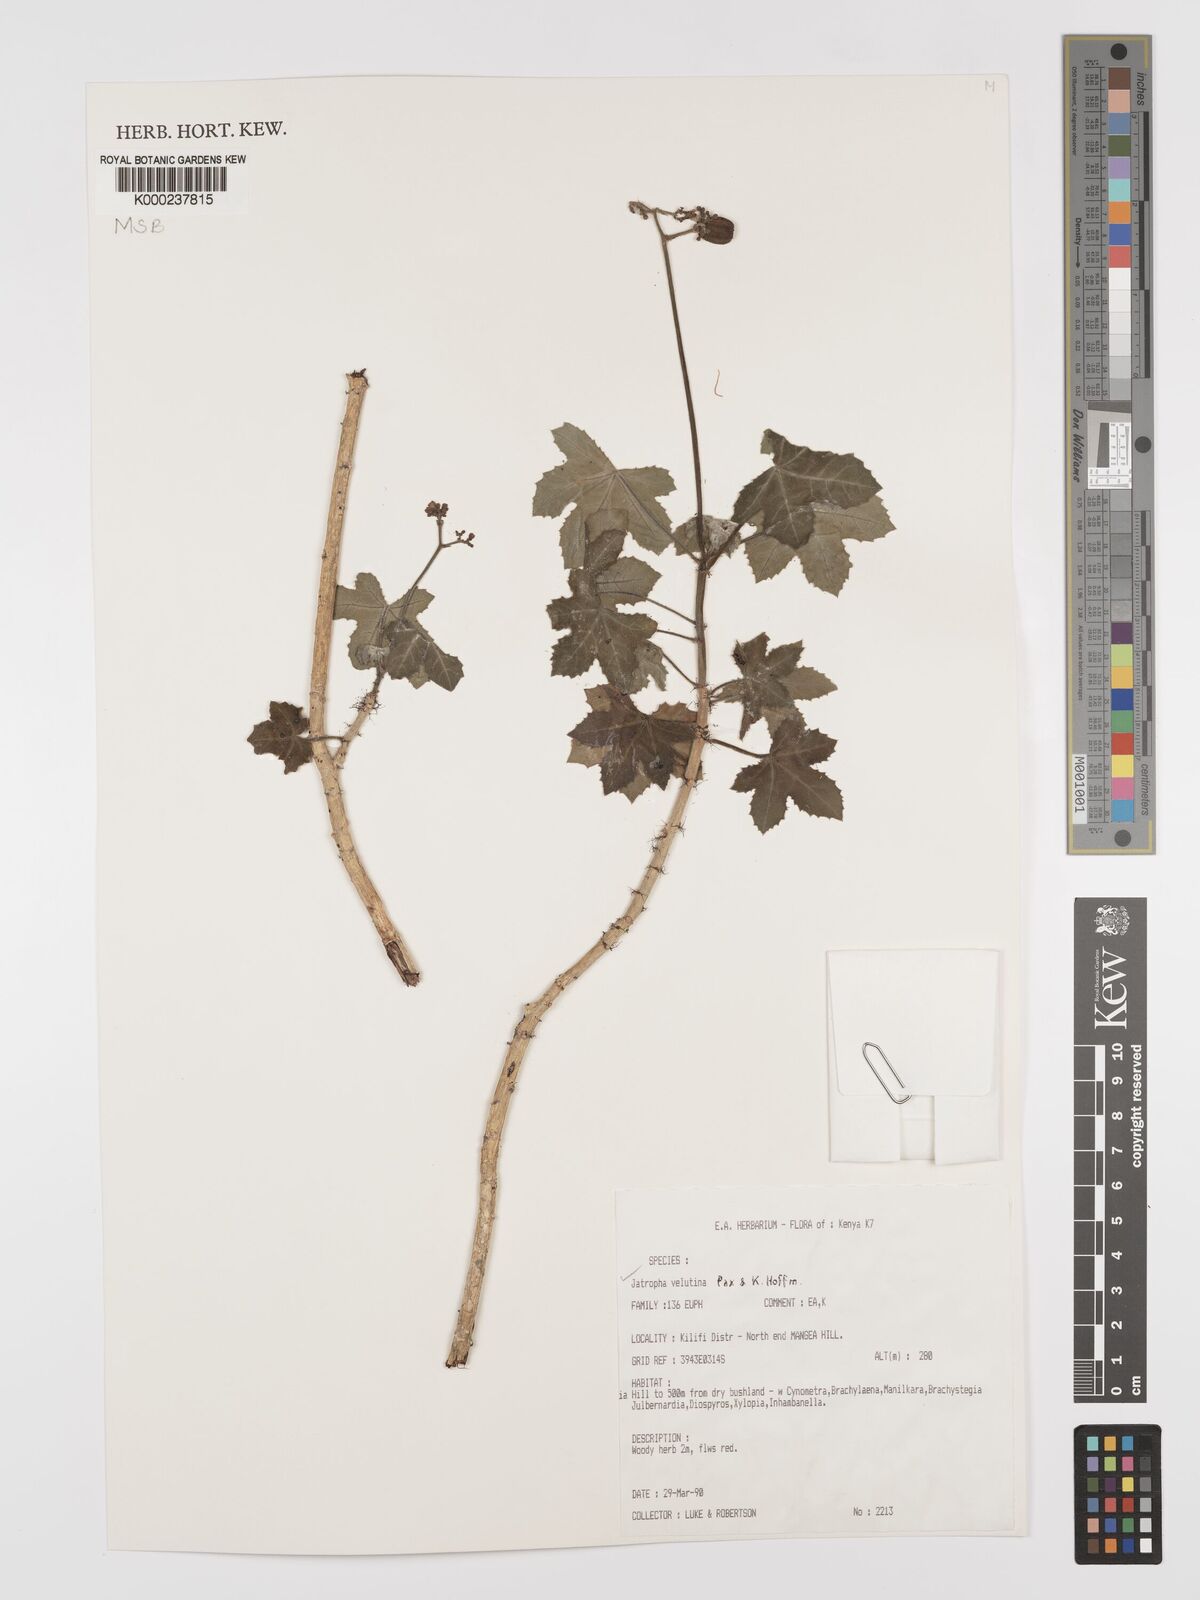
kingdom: Plantae
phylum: Tracheophyta
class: Magnoliopsida
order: Malpighiales
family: Euphorbiaceae
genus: Jatropha
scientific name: Jatropha velutina
